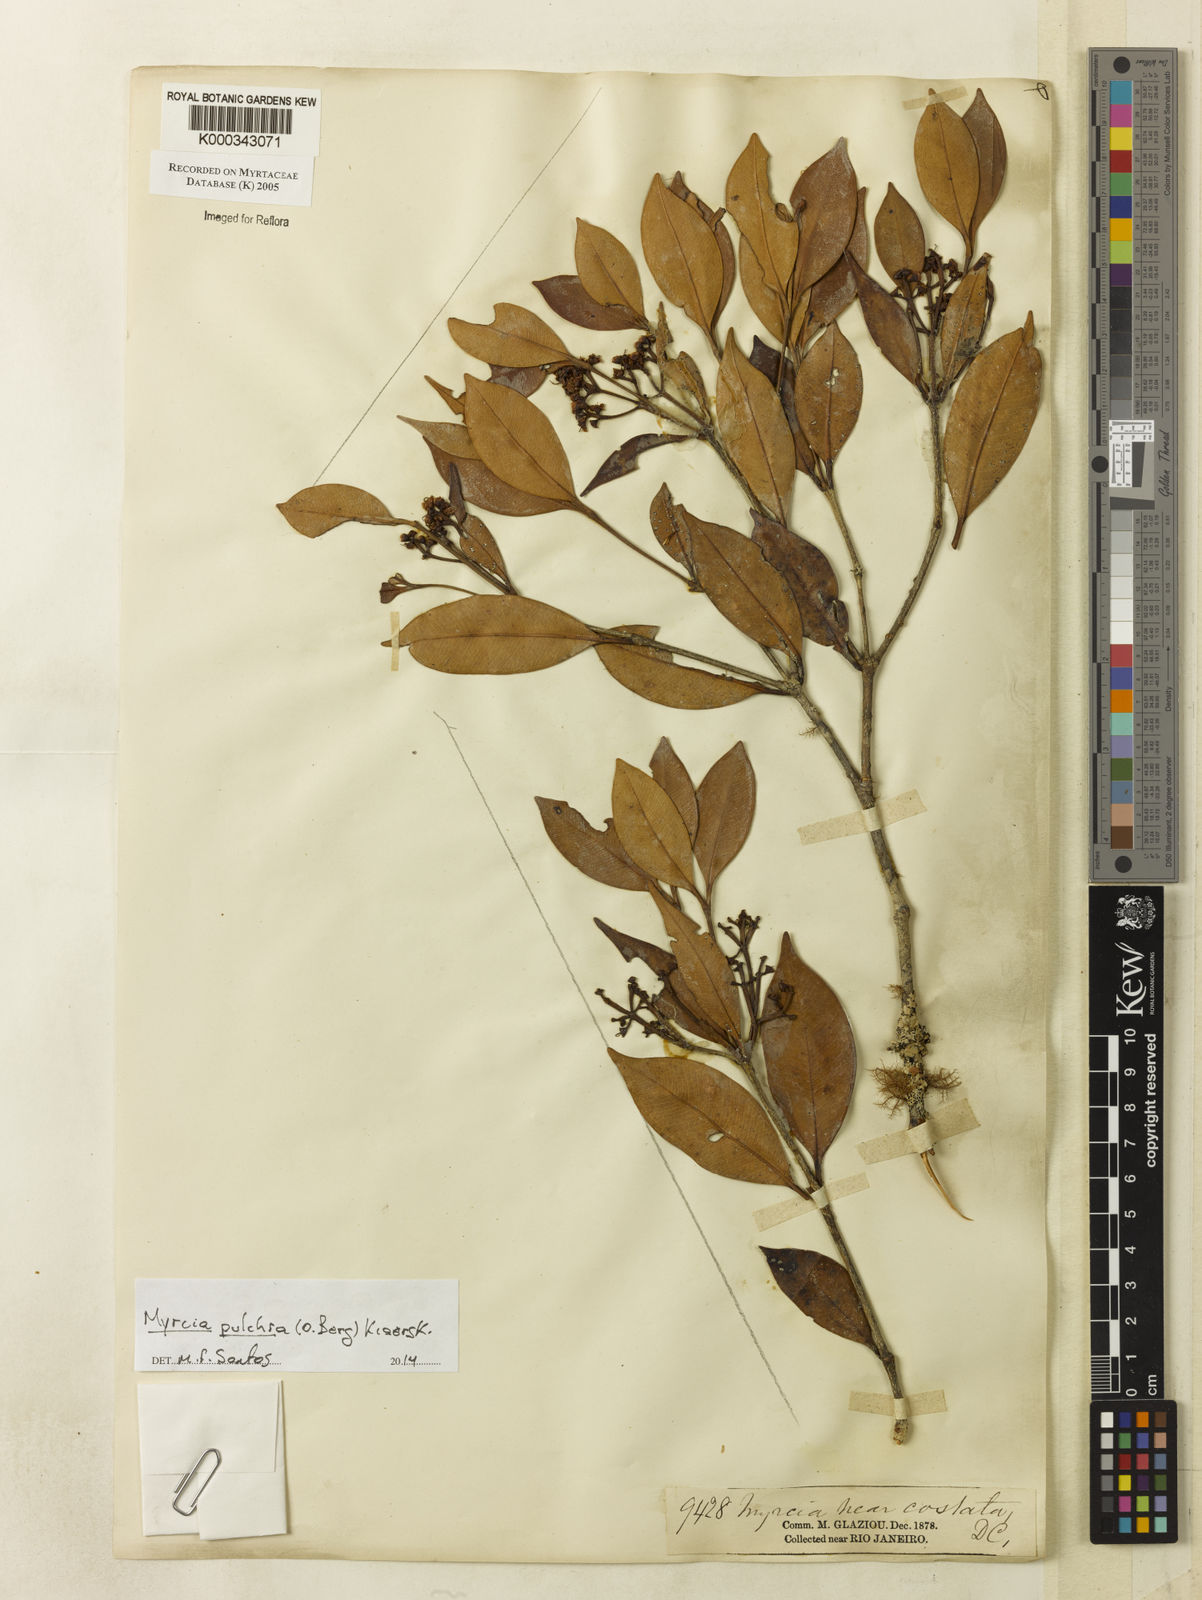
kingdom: Plantae
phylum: Tracheophyta
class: Magnoliopsida
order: Myrtales
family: Myrtaceae
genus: Myrcia
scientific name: Myrcia splendens
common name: Surinam cherry
